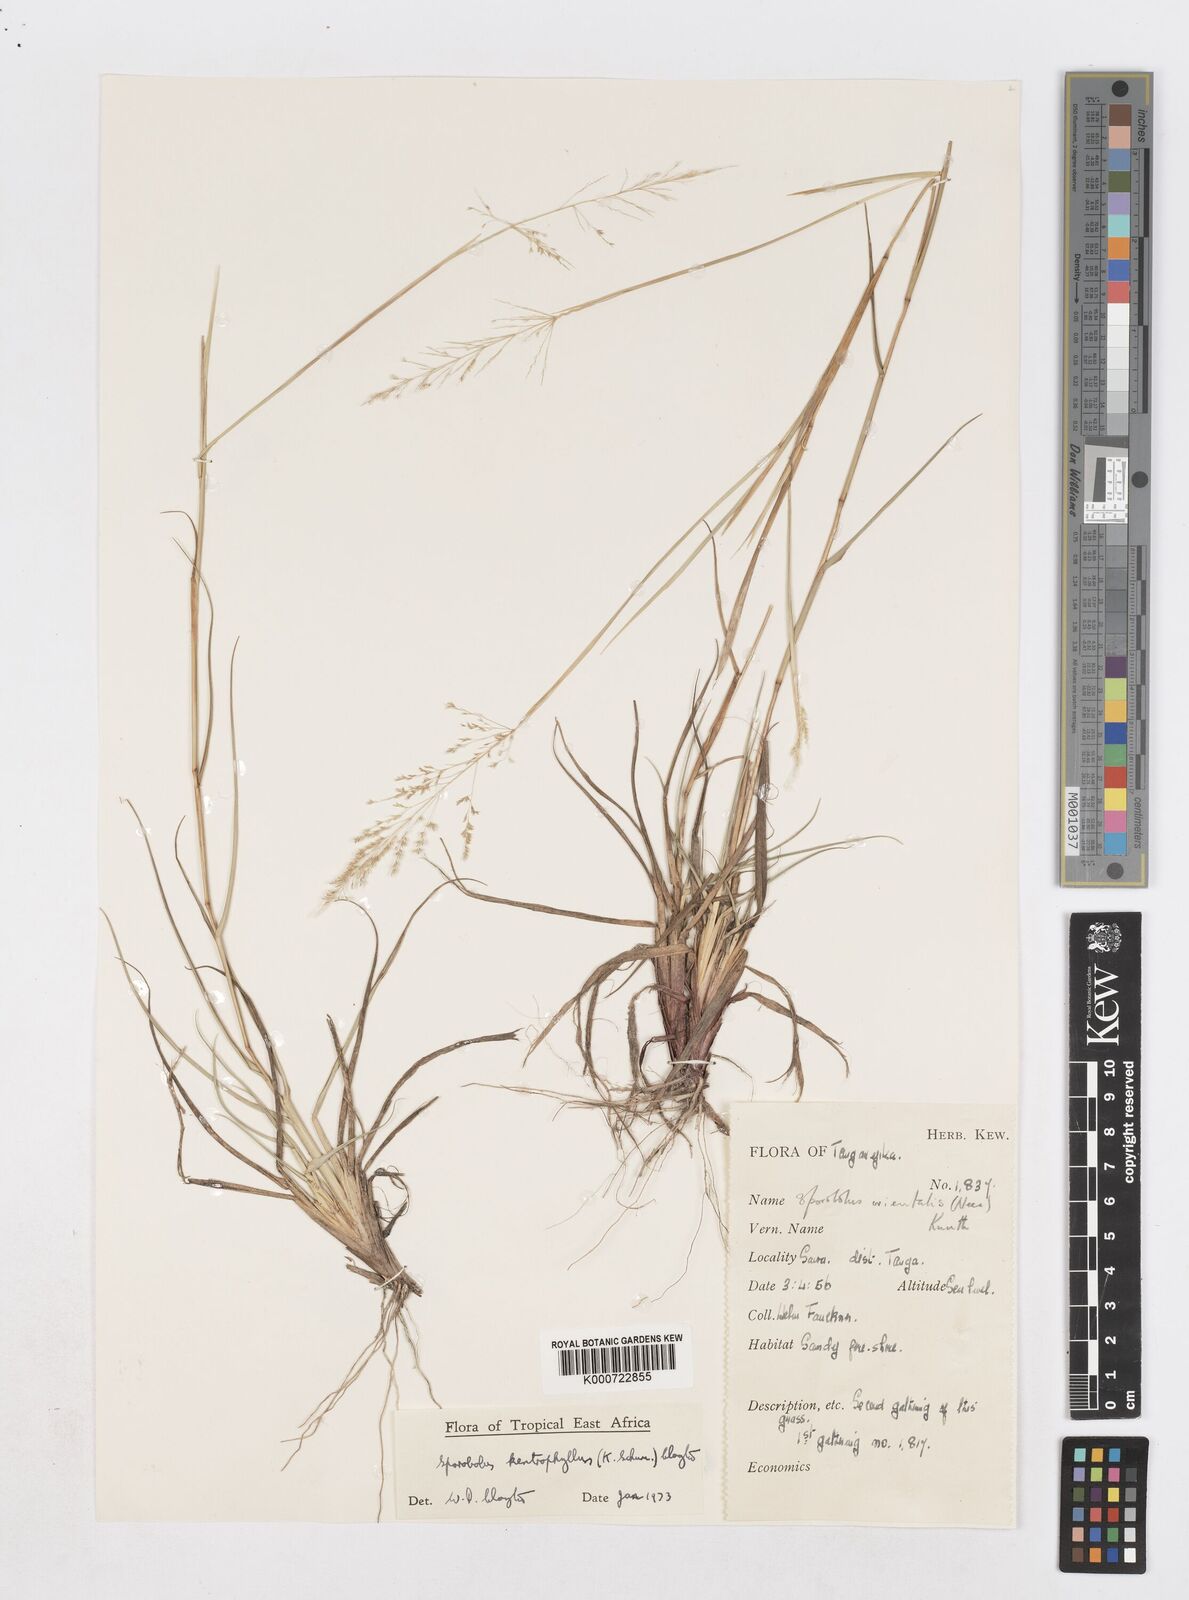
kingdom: Plantae
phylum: Tracheophyta
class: Liliopsida
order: Poales
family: Poaceae
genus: Sporobolus
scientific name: Sporobolus ioclados
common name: Pan dropseed
